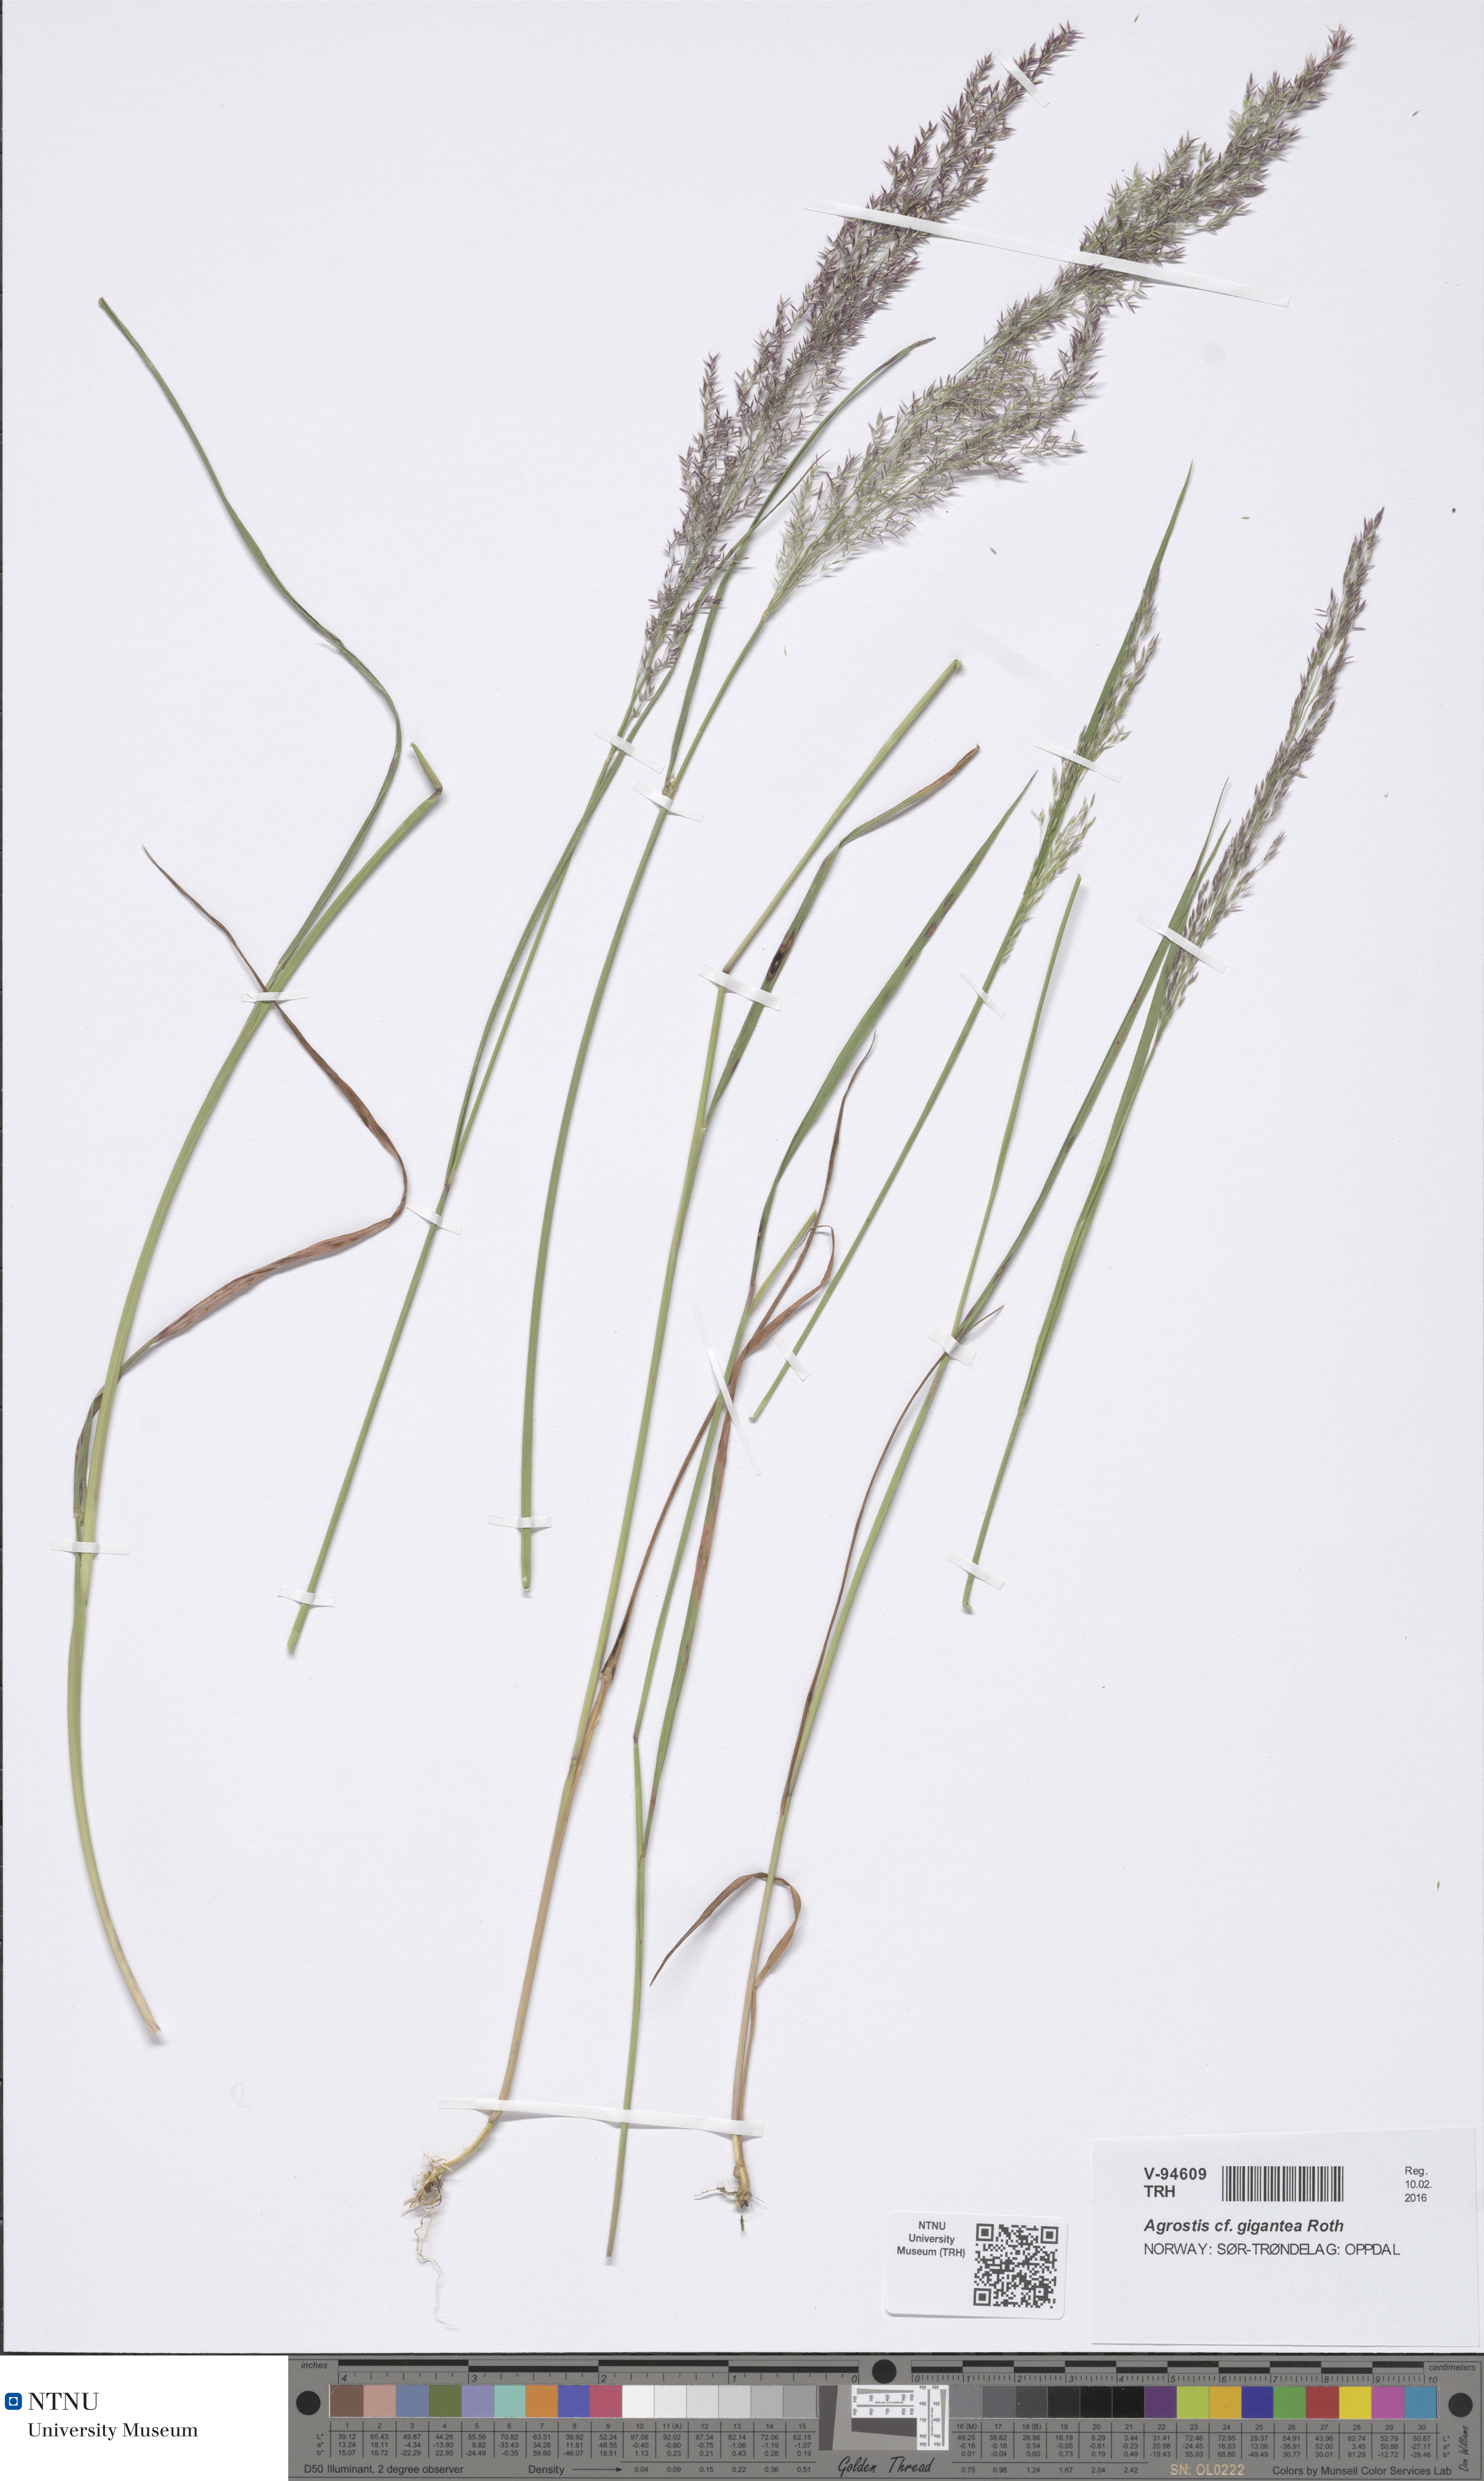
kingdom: Plantae
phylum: Tracheophyta
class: Liliopsida
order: Poales
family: Poaceae
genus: Agrostis
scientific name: Agrostis gigantea
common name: Black bent
